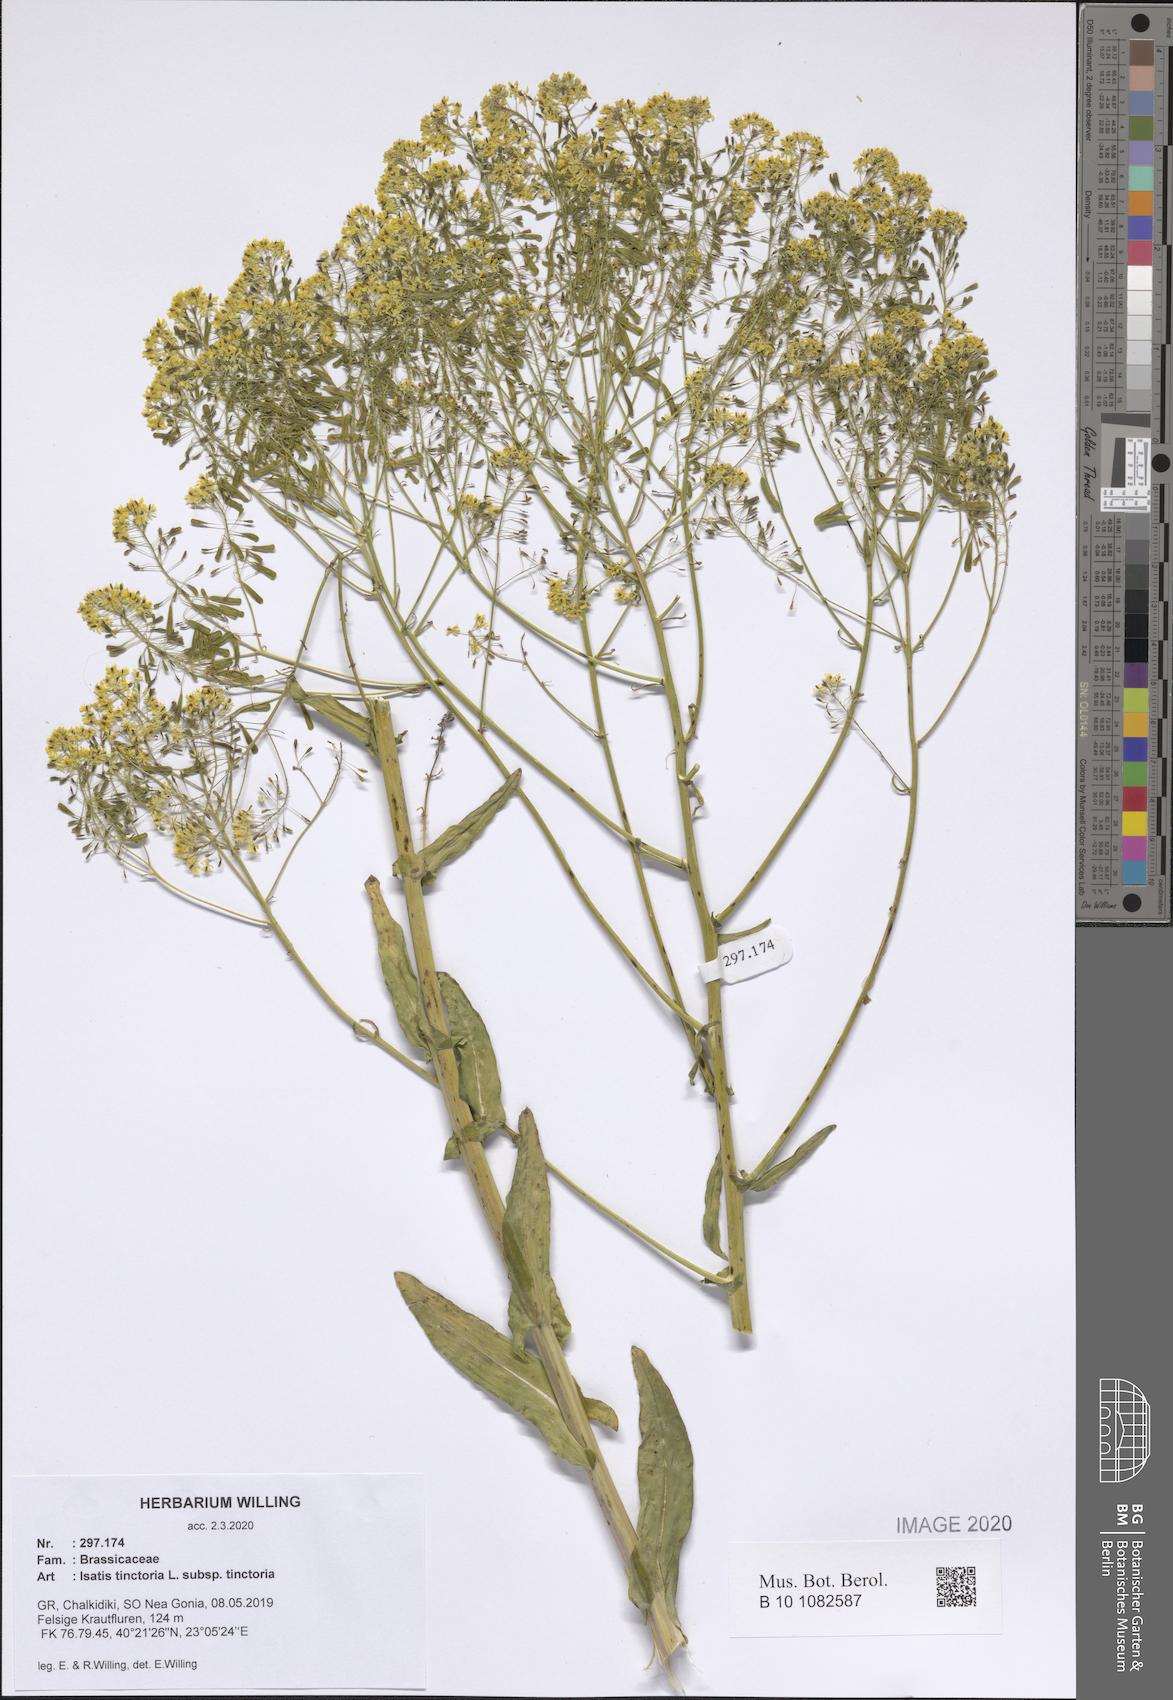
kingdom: Plantae
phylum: Tracheophyta
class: Magnoliopsida
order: Brassicales
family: Brassicaceae
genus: Isatis
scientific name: Isatis tinctoria
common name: Woad
